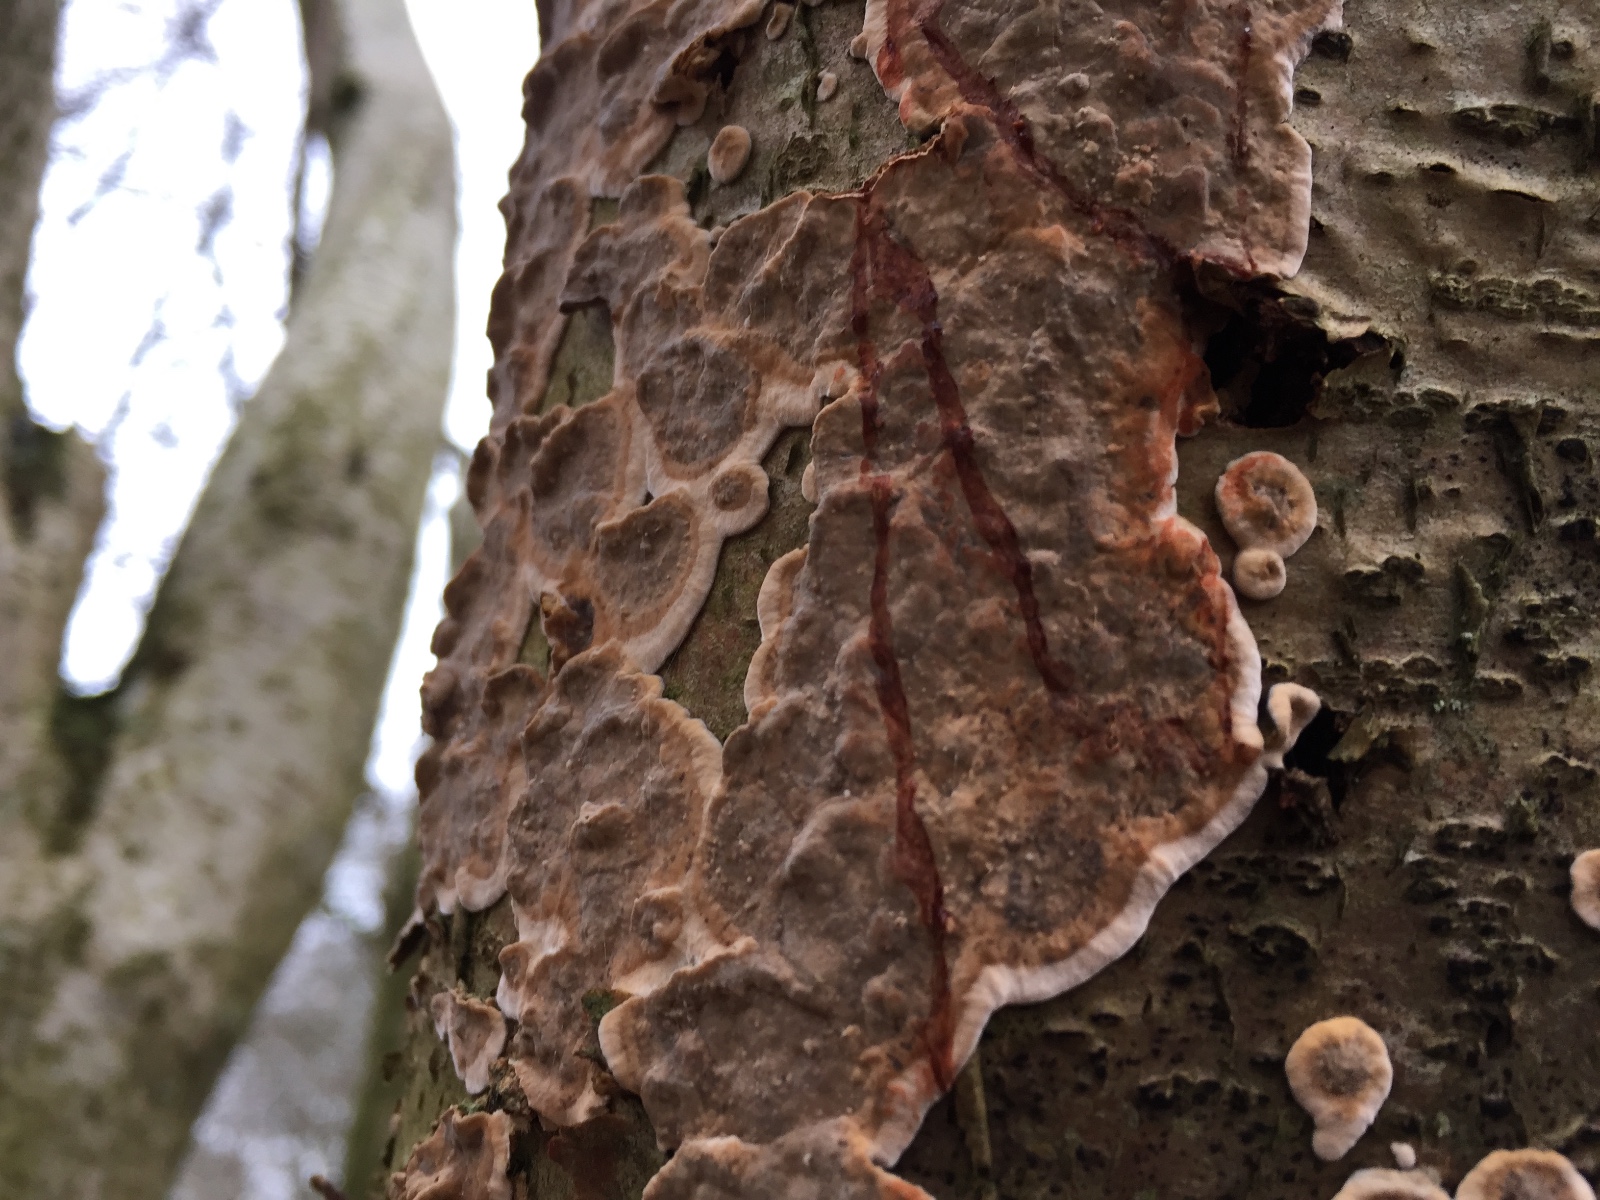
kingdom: Fungi
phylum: Basidiomycota
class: Agaricomycetes
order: Russulales
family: Stereaceae
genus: Stereum
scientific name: Stereum rugosum
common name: rynket lædersvamp
